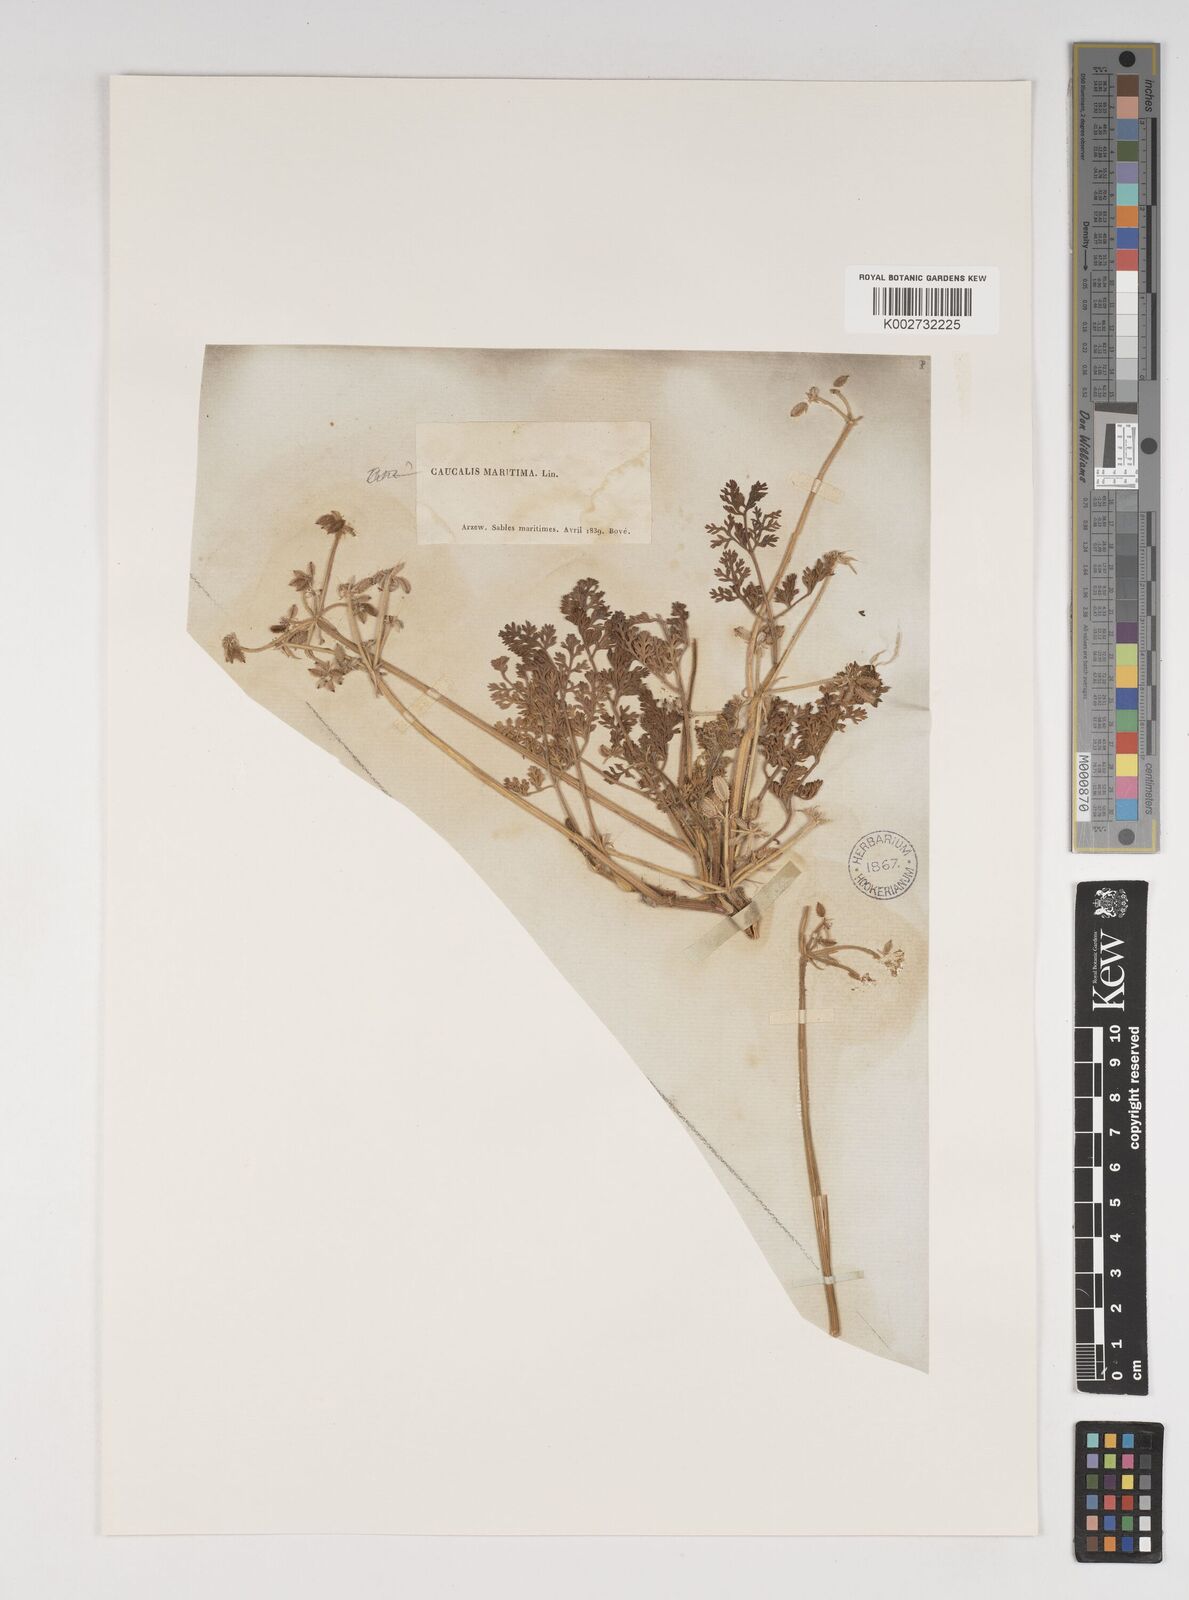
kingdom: Plantae
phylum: Tracheophyta
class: Magnoliopsida
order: Apiales
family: Apiaceae
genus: Daucus
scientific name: Daucus pumilus
